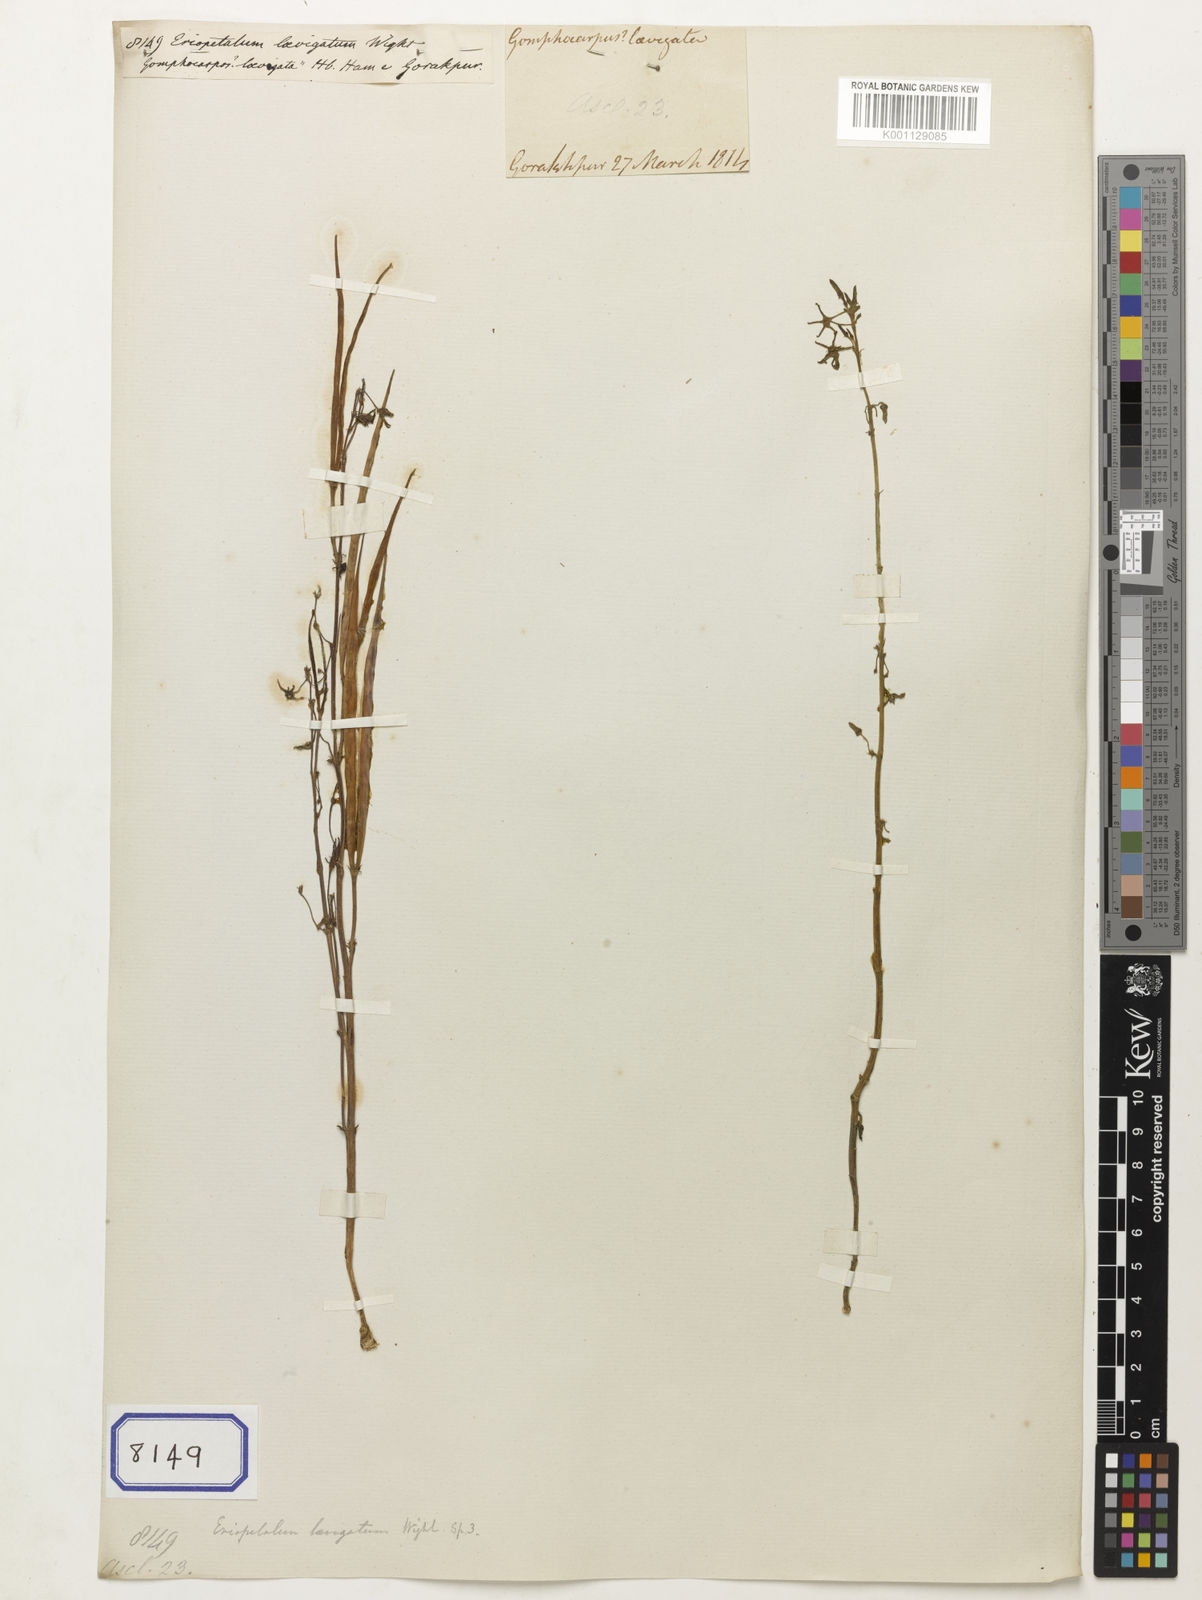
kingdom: Plantae
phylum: Tracheophyta
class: Magnoliopsida
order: Gentianales
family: Apocynaceae
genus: Ceropegia
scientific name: Ceropegia laevigata
